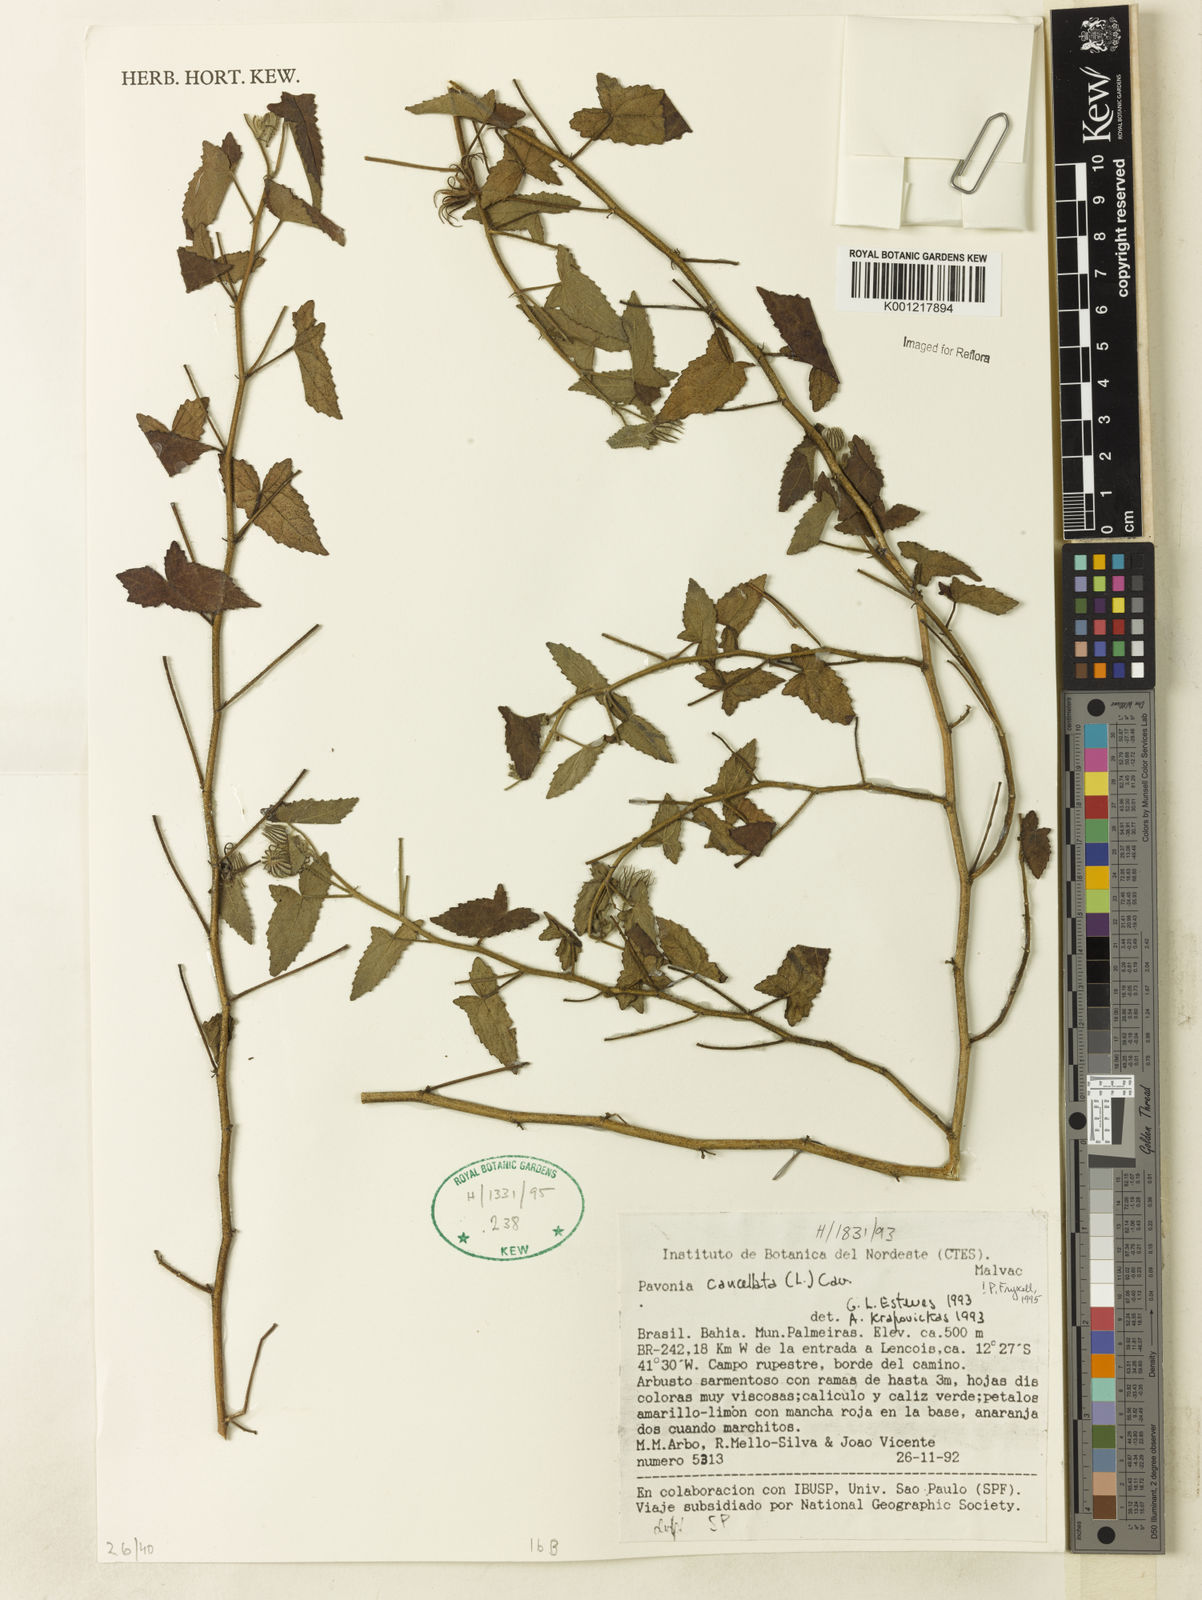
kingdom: Plantae
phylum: Tracheophyta
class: Magnoliopsida
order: Malvales
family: Malvaceae
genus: Pavonia
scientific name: Pavonia cancellata
